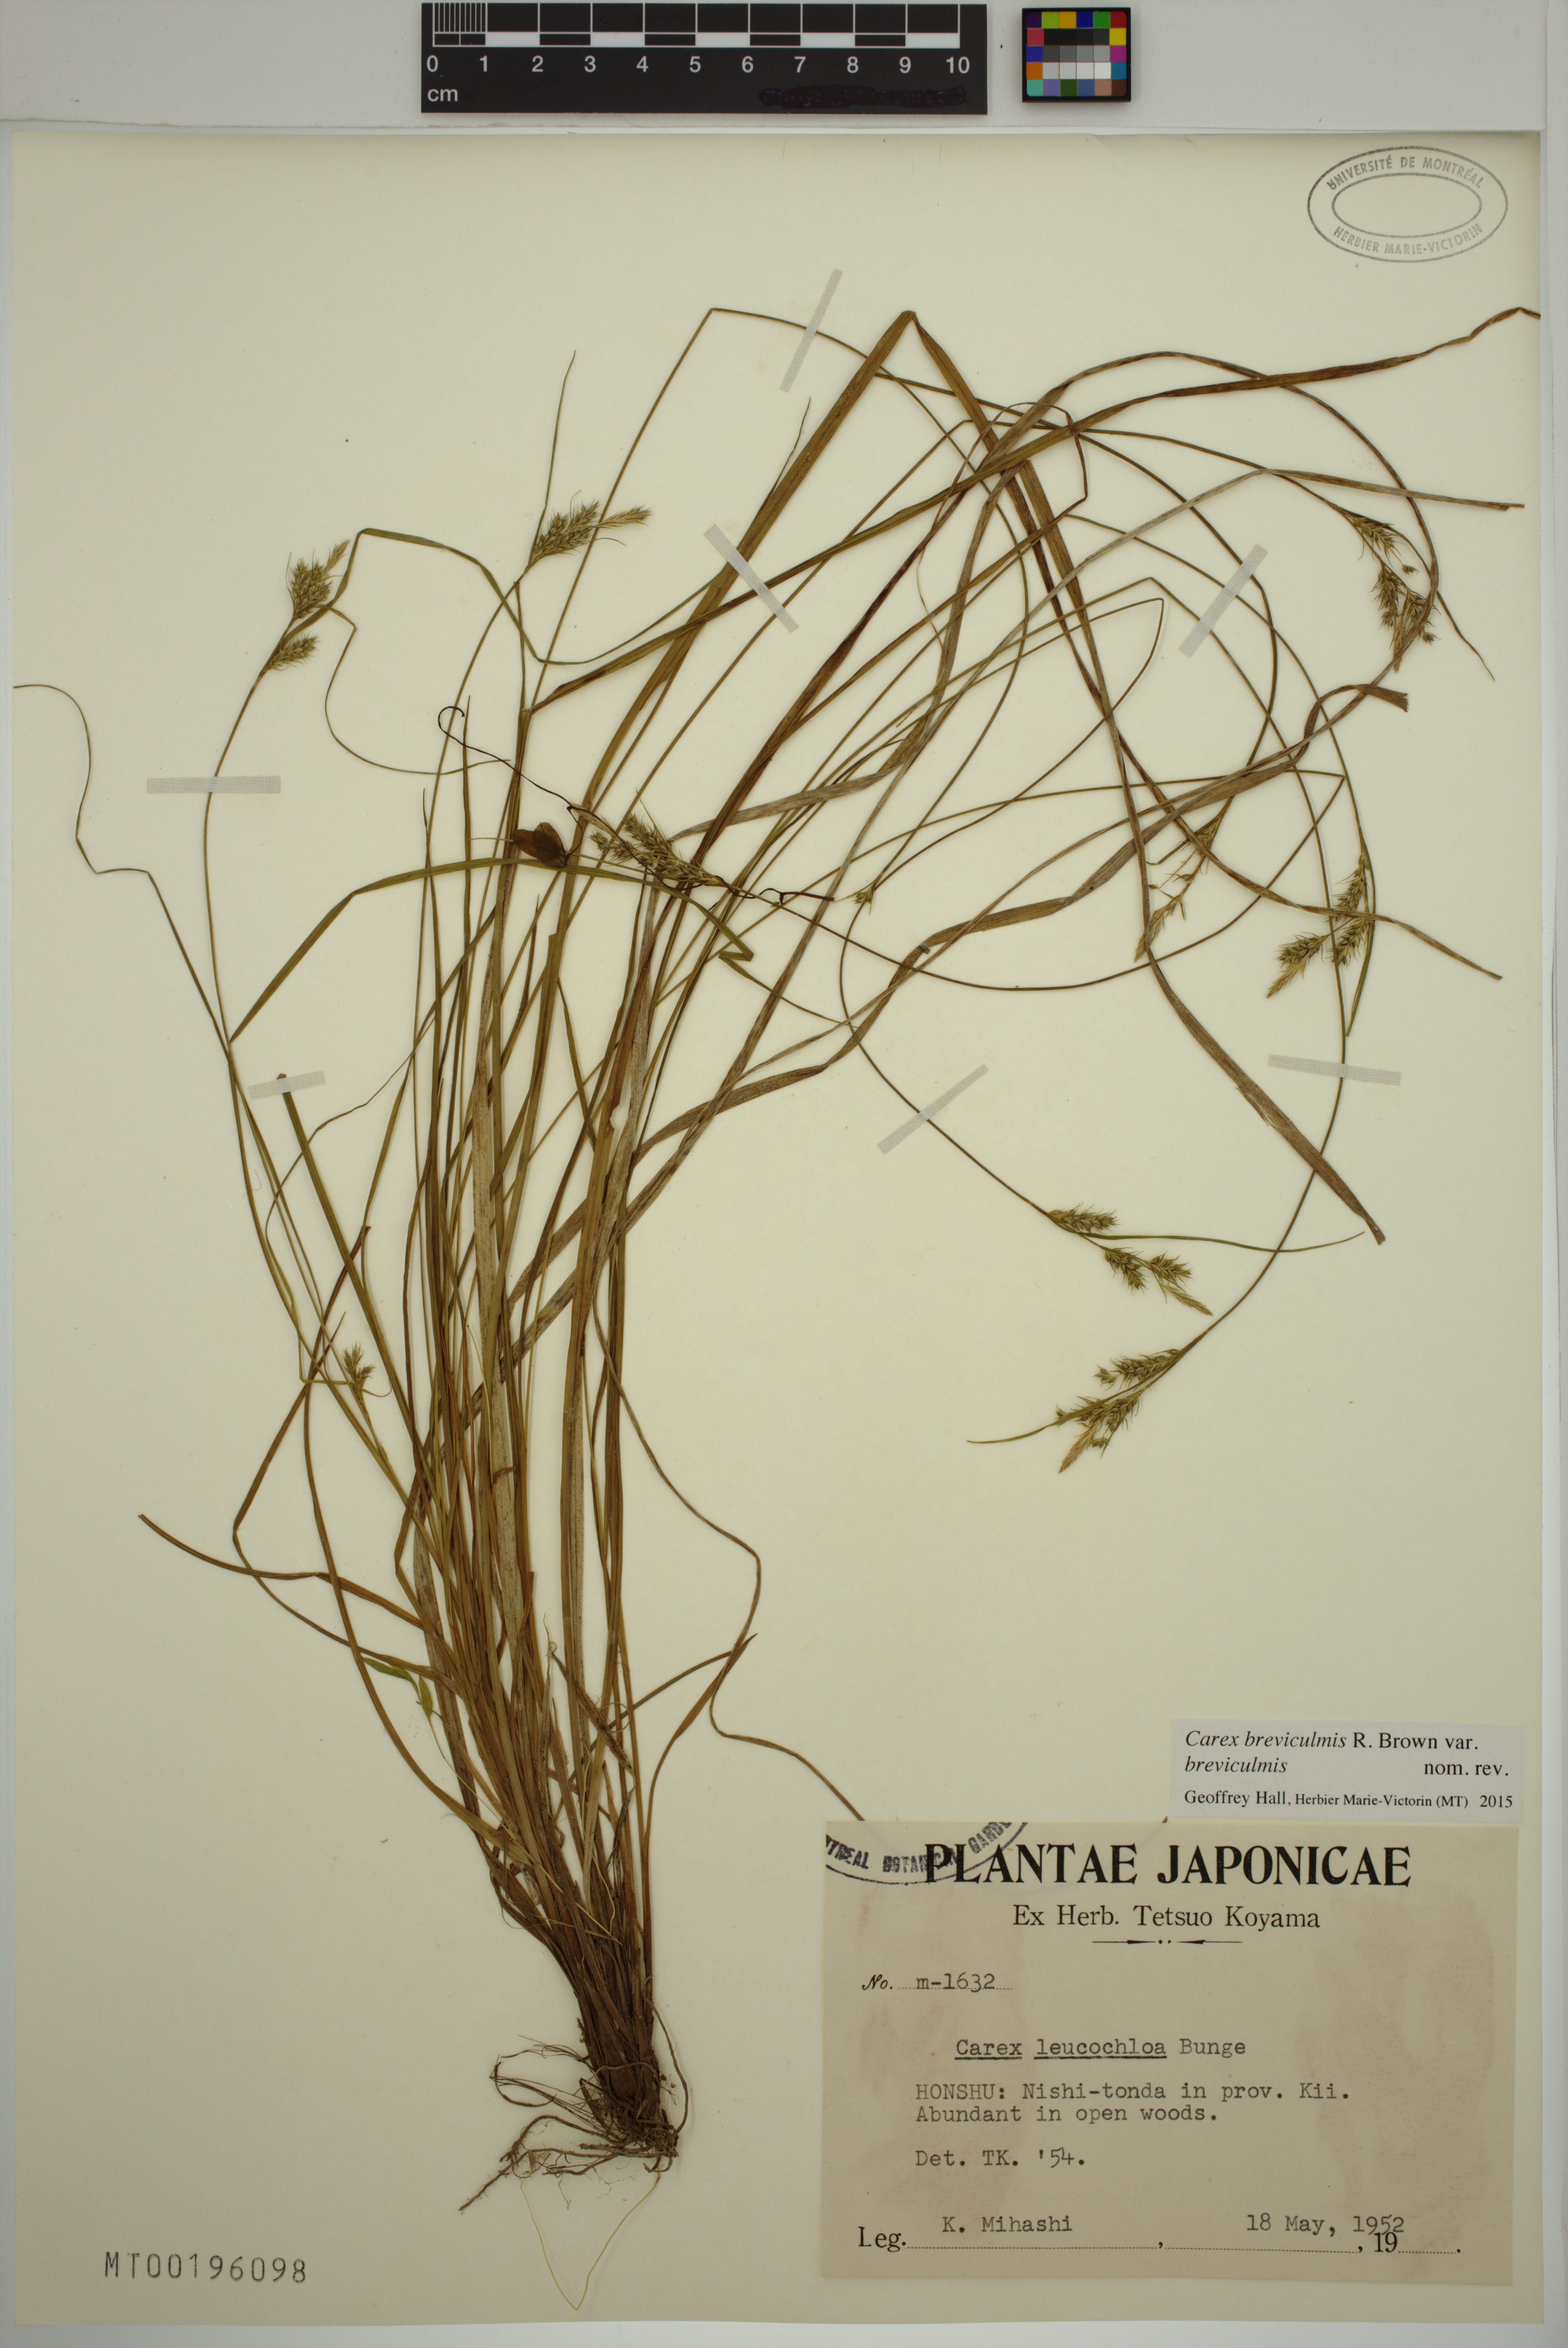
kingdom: Plantae
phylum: Tracheophyta
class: Liliopsida
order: Poales
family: Cyperaceae
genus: Carex
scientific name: Carex breviculmis
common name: Asian shortstem sedge
